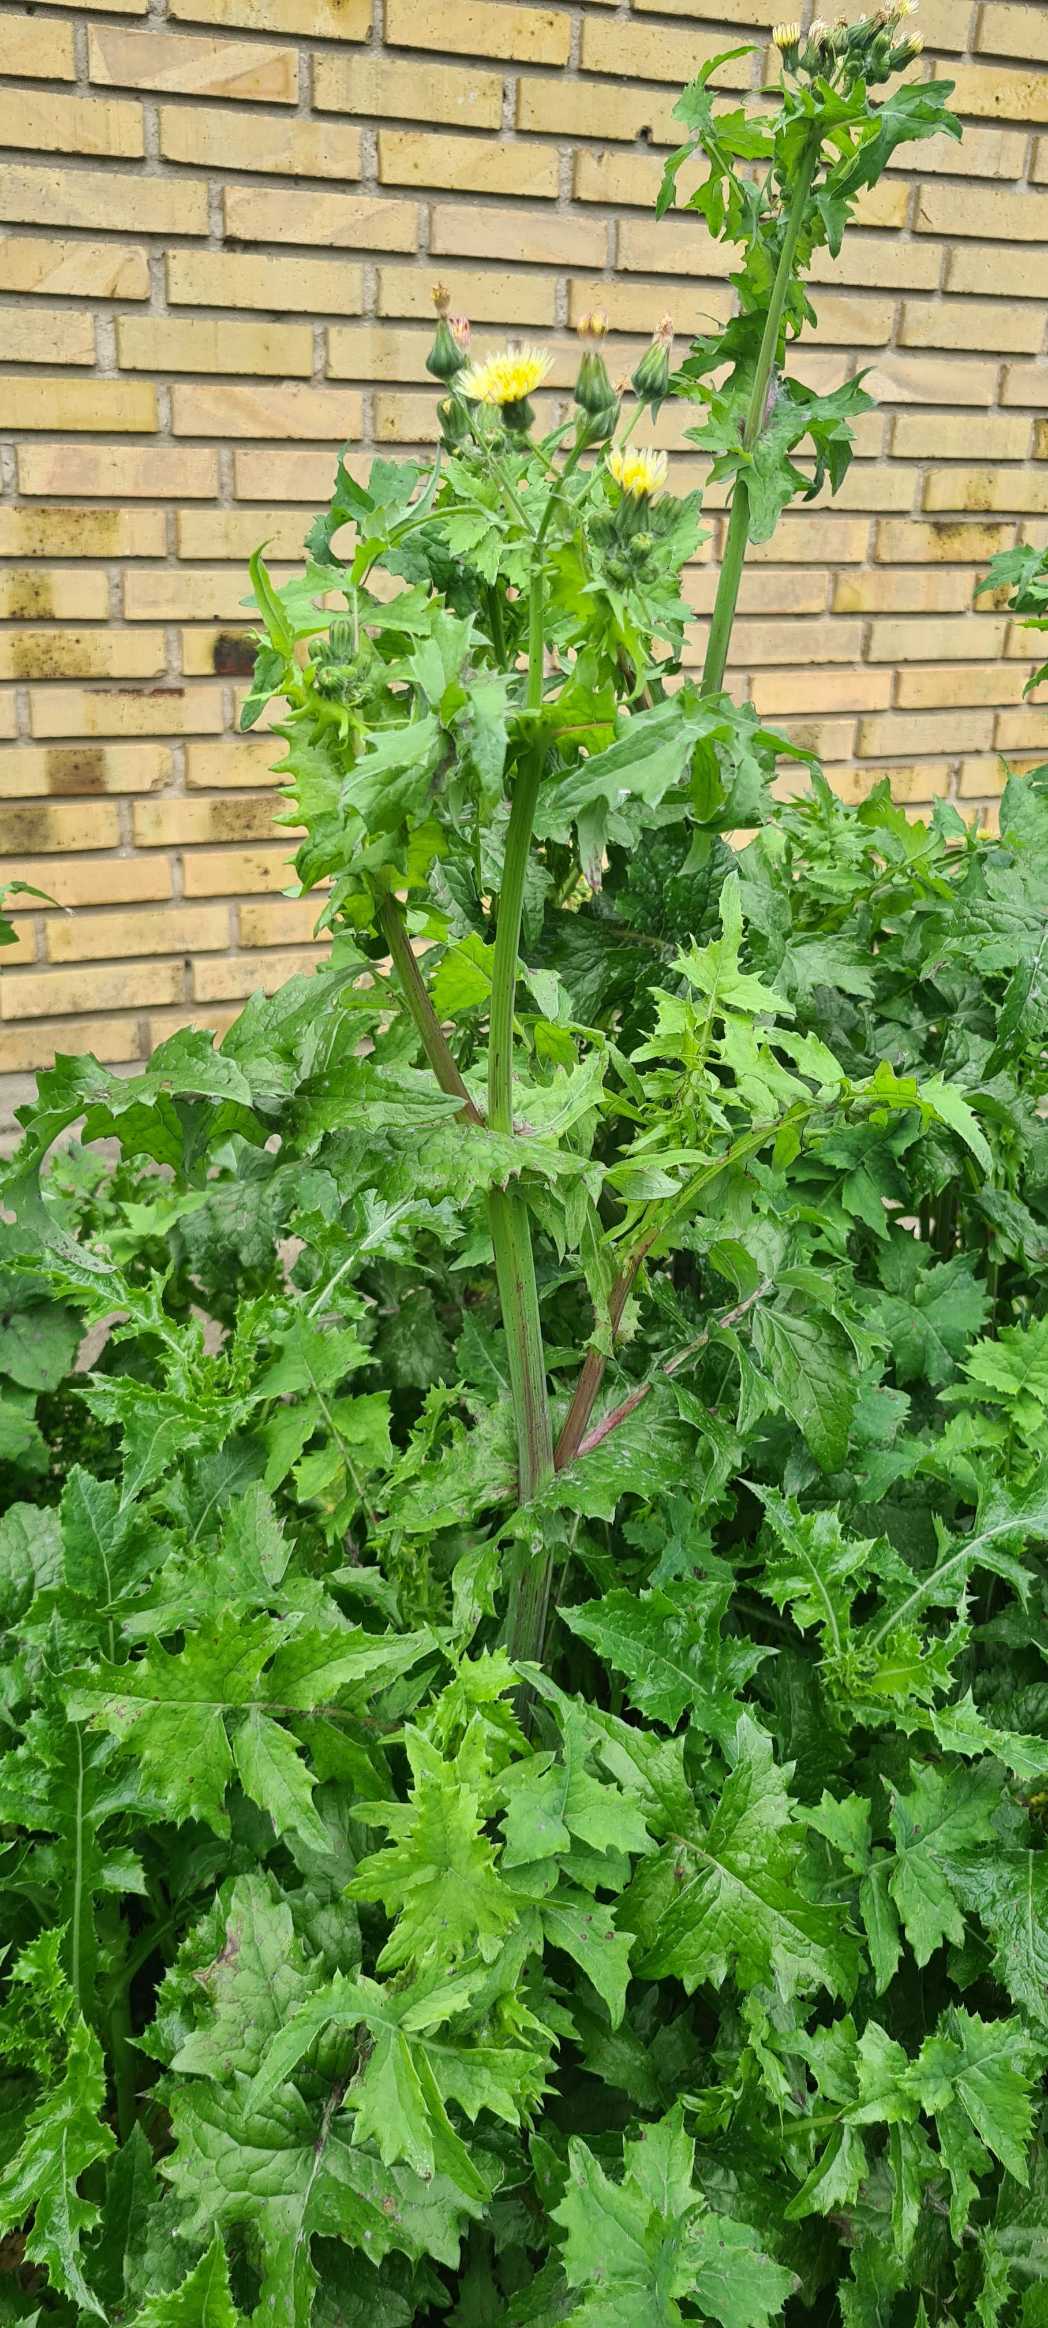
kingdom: Plantae
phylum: Tracheophyta
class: Magnoliopsida
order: Asterales
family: Asteraceae
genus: Sonchus
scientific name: Sonchus oleraceus
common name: Almindelig svinemælk
